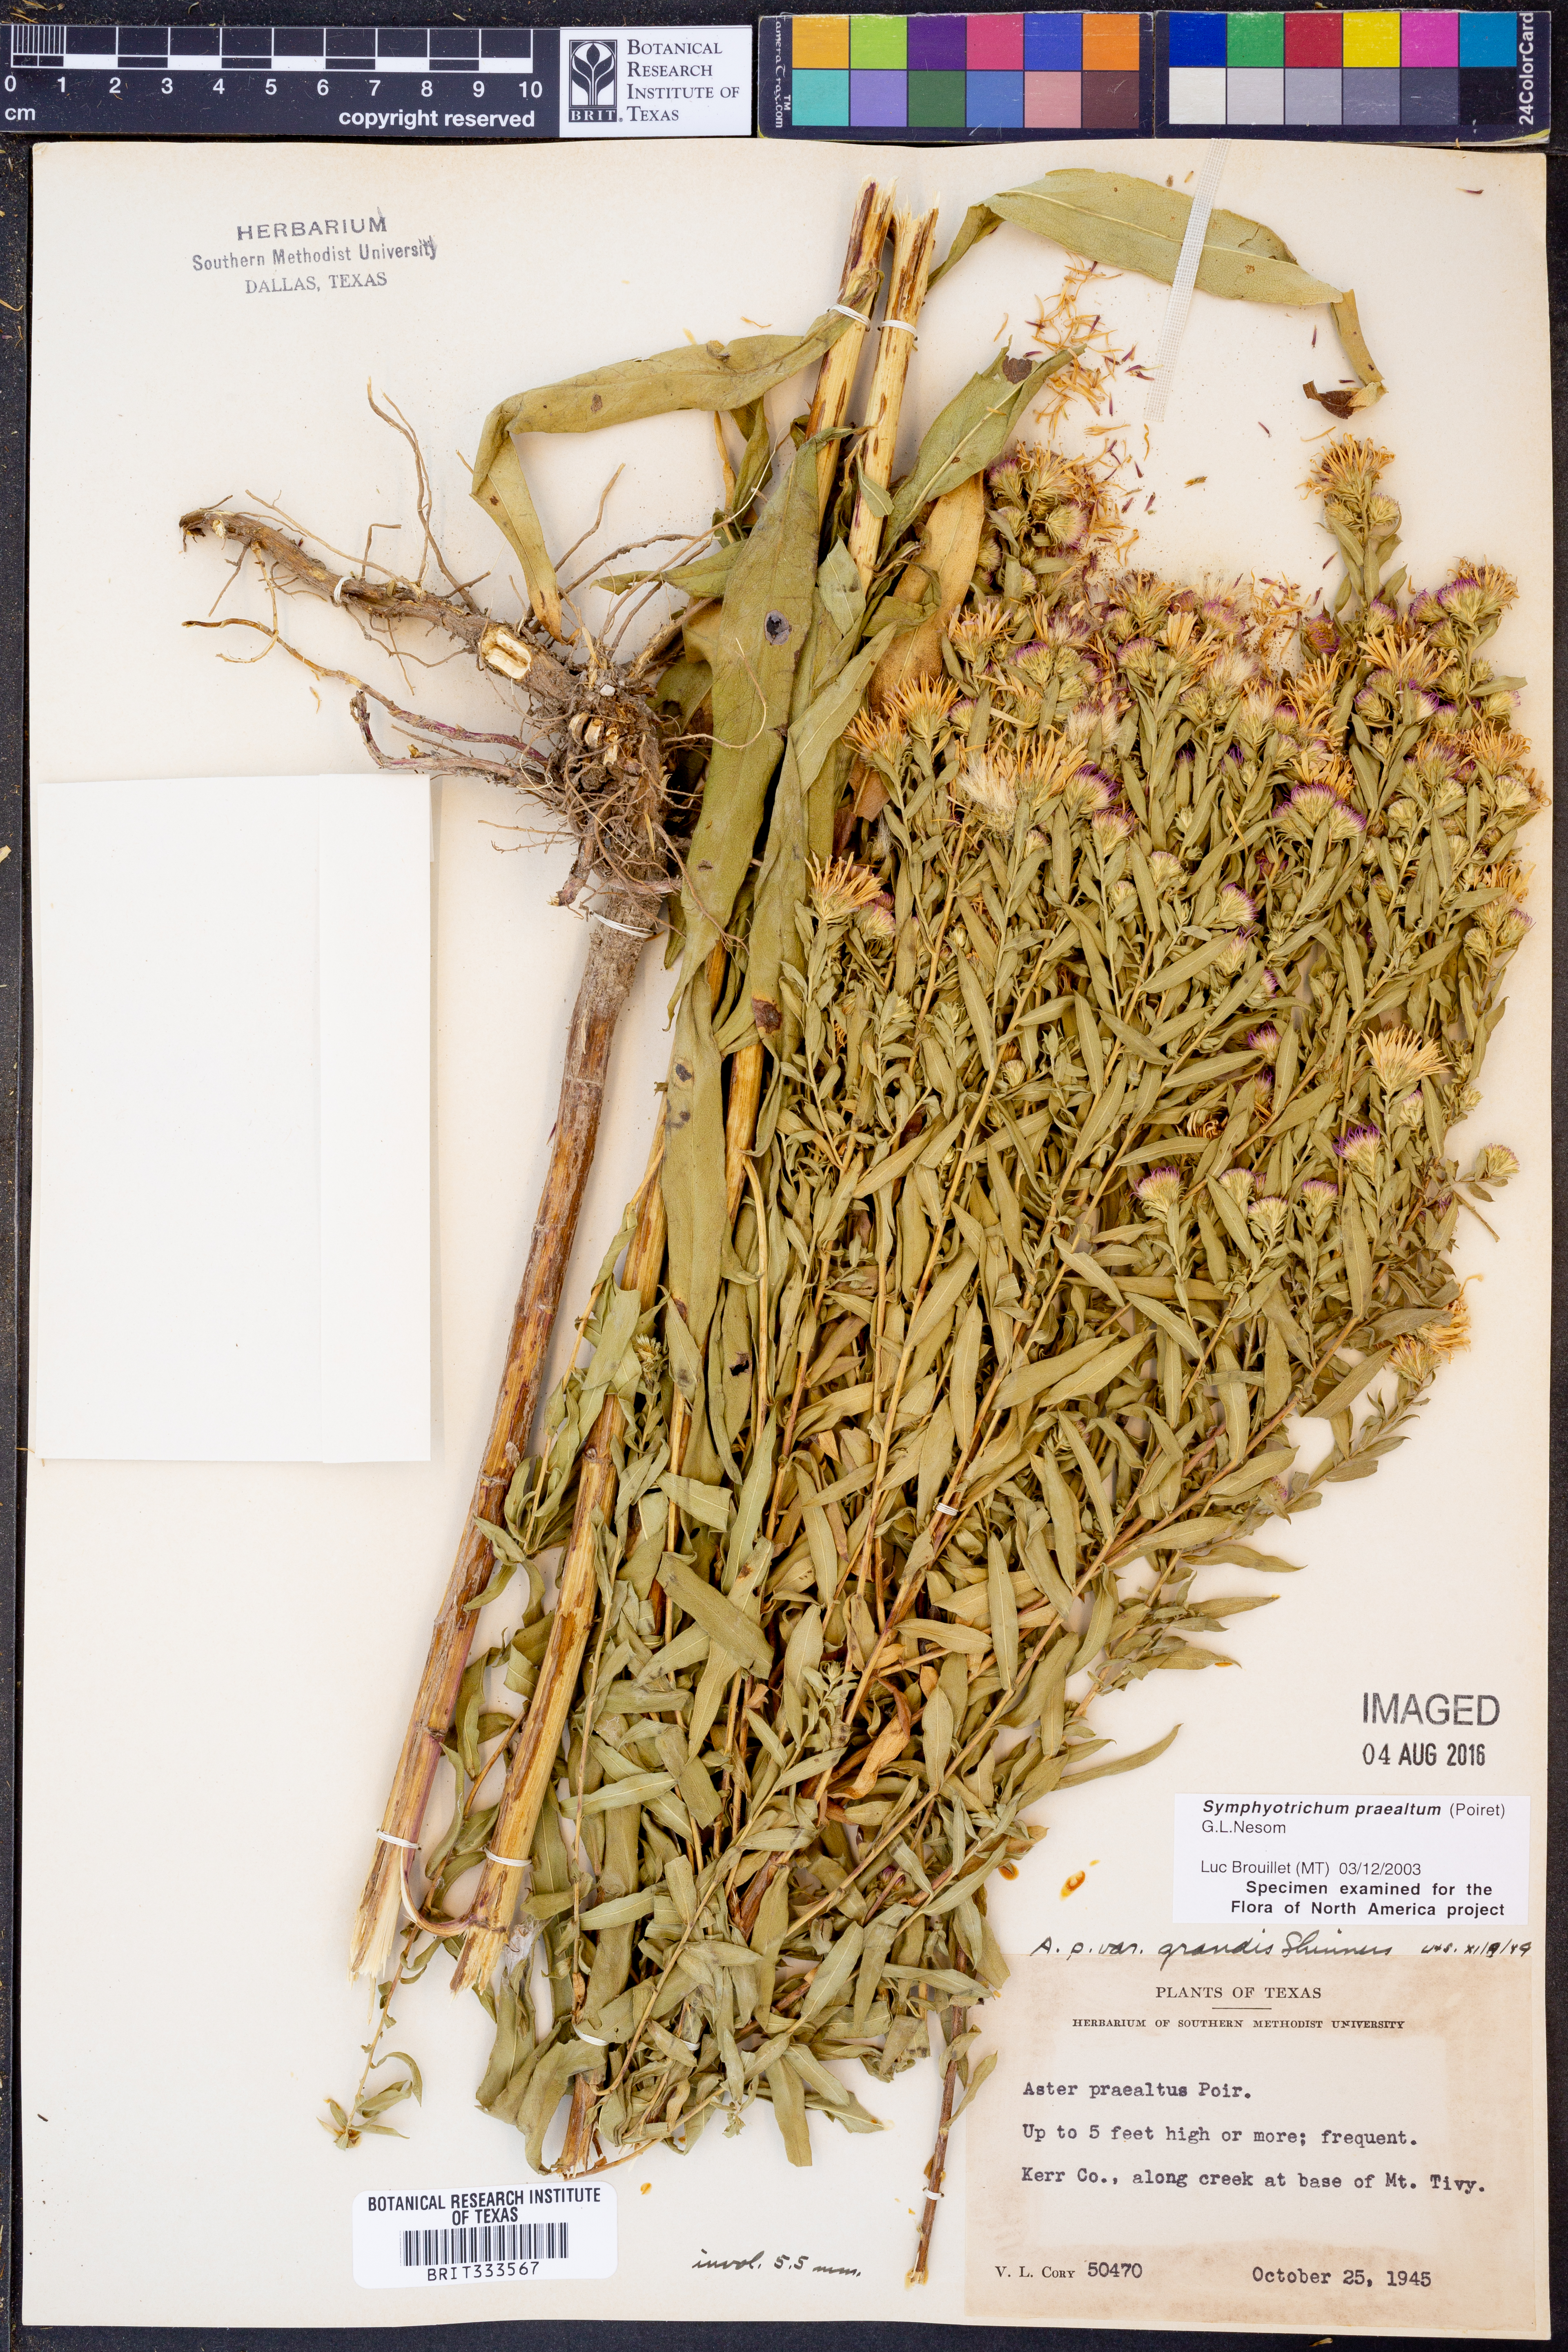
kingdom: Plantae
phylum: Tracheophyta
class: Magnoliopsida
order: Asterales
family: Asteraceae
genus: Symphyotrichum
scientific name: Symphyotrichum praealtum
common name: Willow aster
